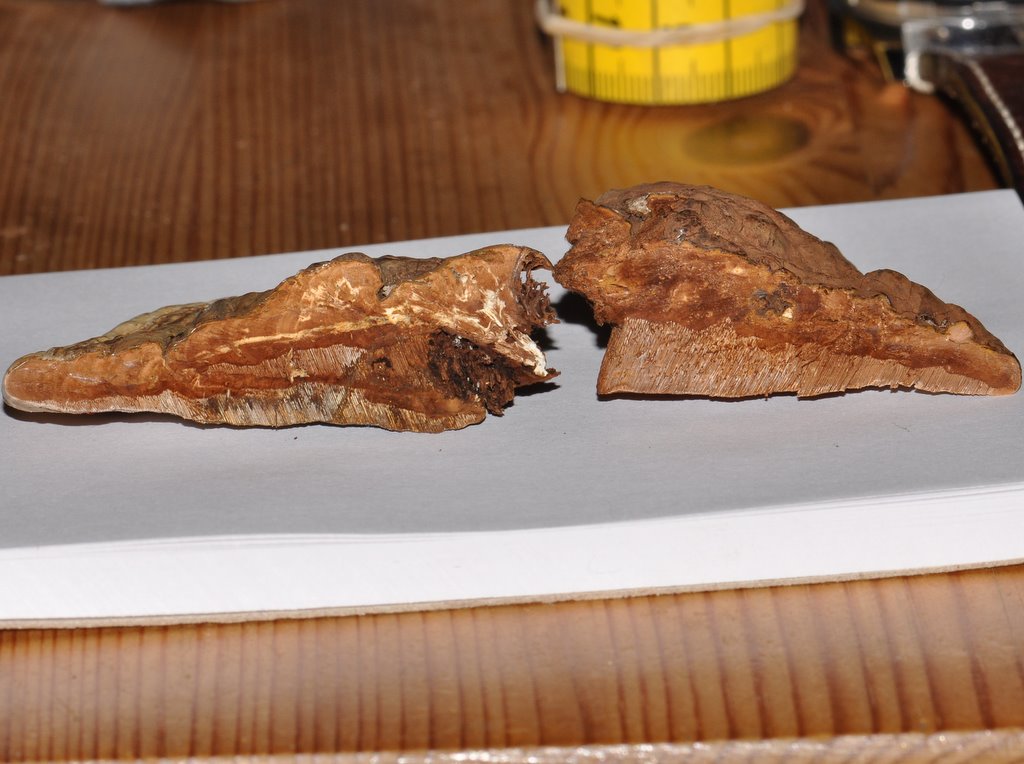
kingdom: Fungi
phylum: Basidiomycota
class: Agaricomycetes
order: Polyporales
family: Polyporaceae
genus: Ganoderma
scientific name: Ganoderma applanatum
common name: flad lakporesvamp
